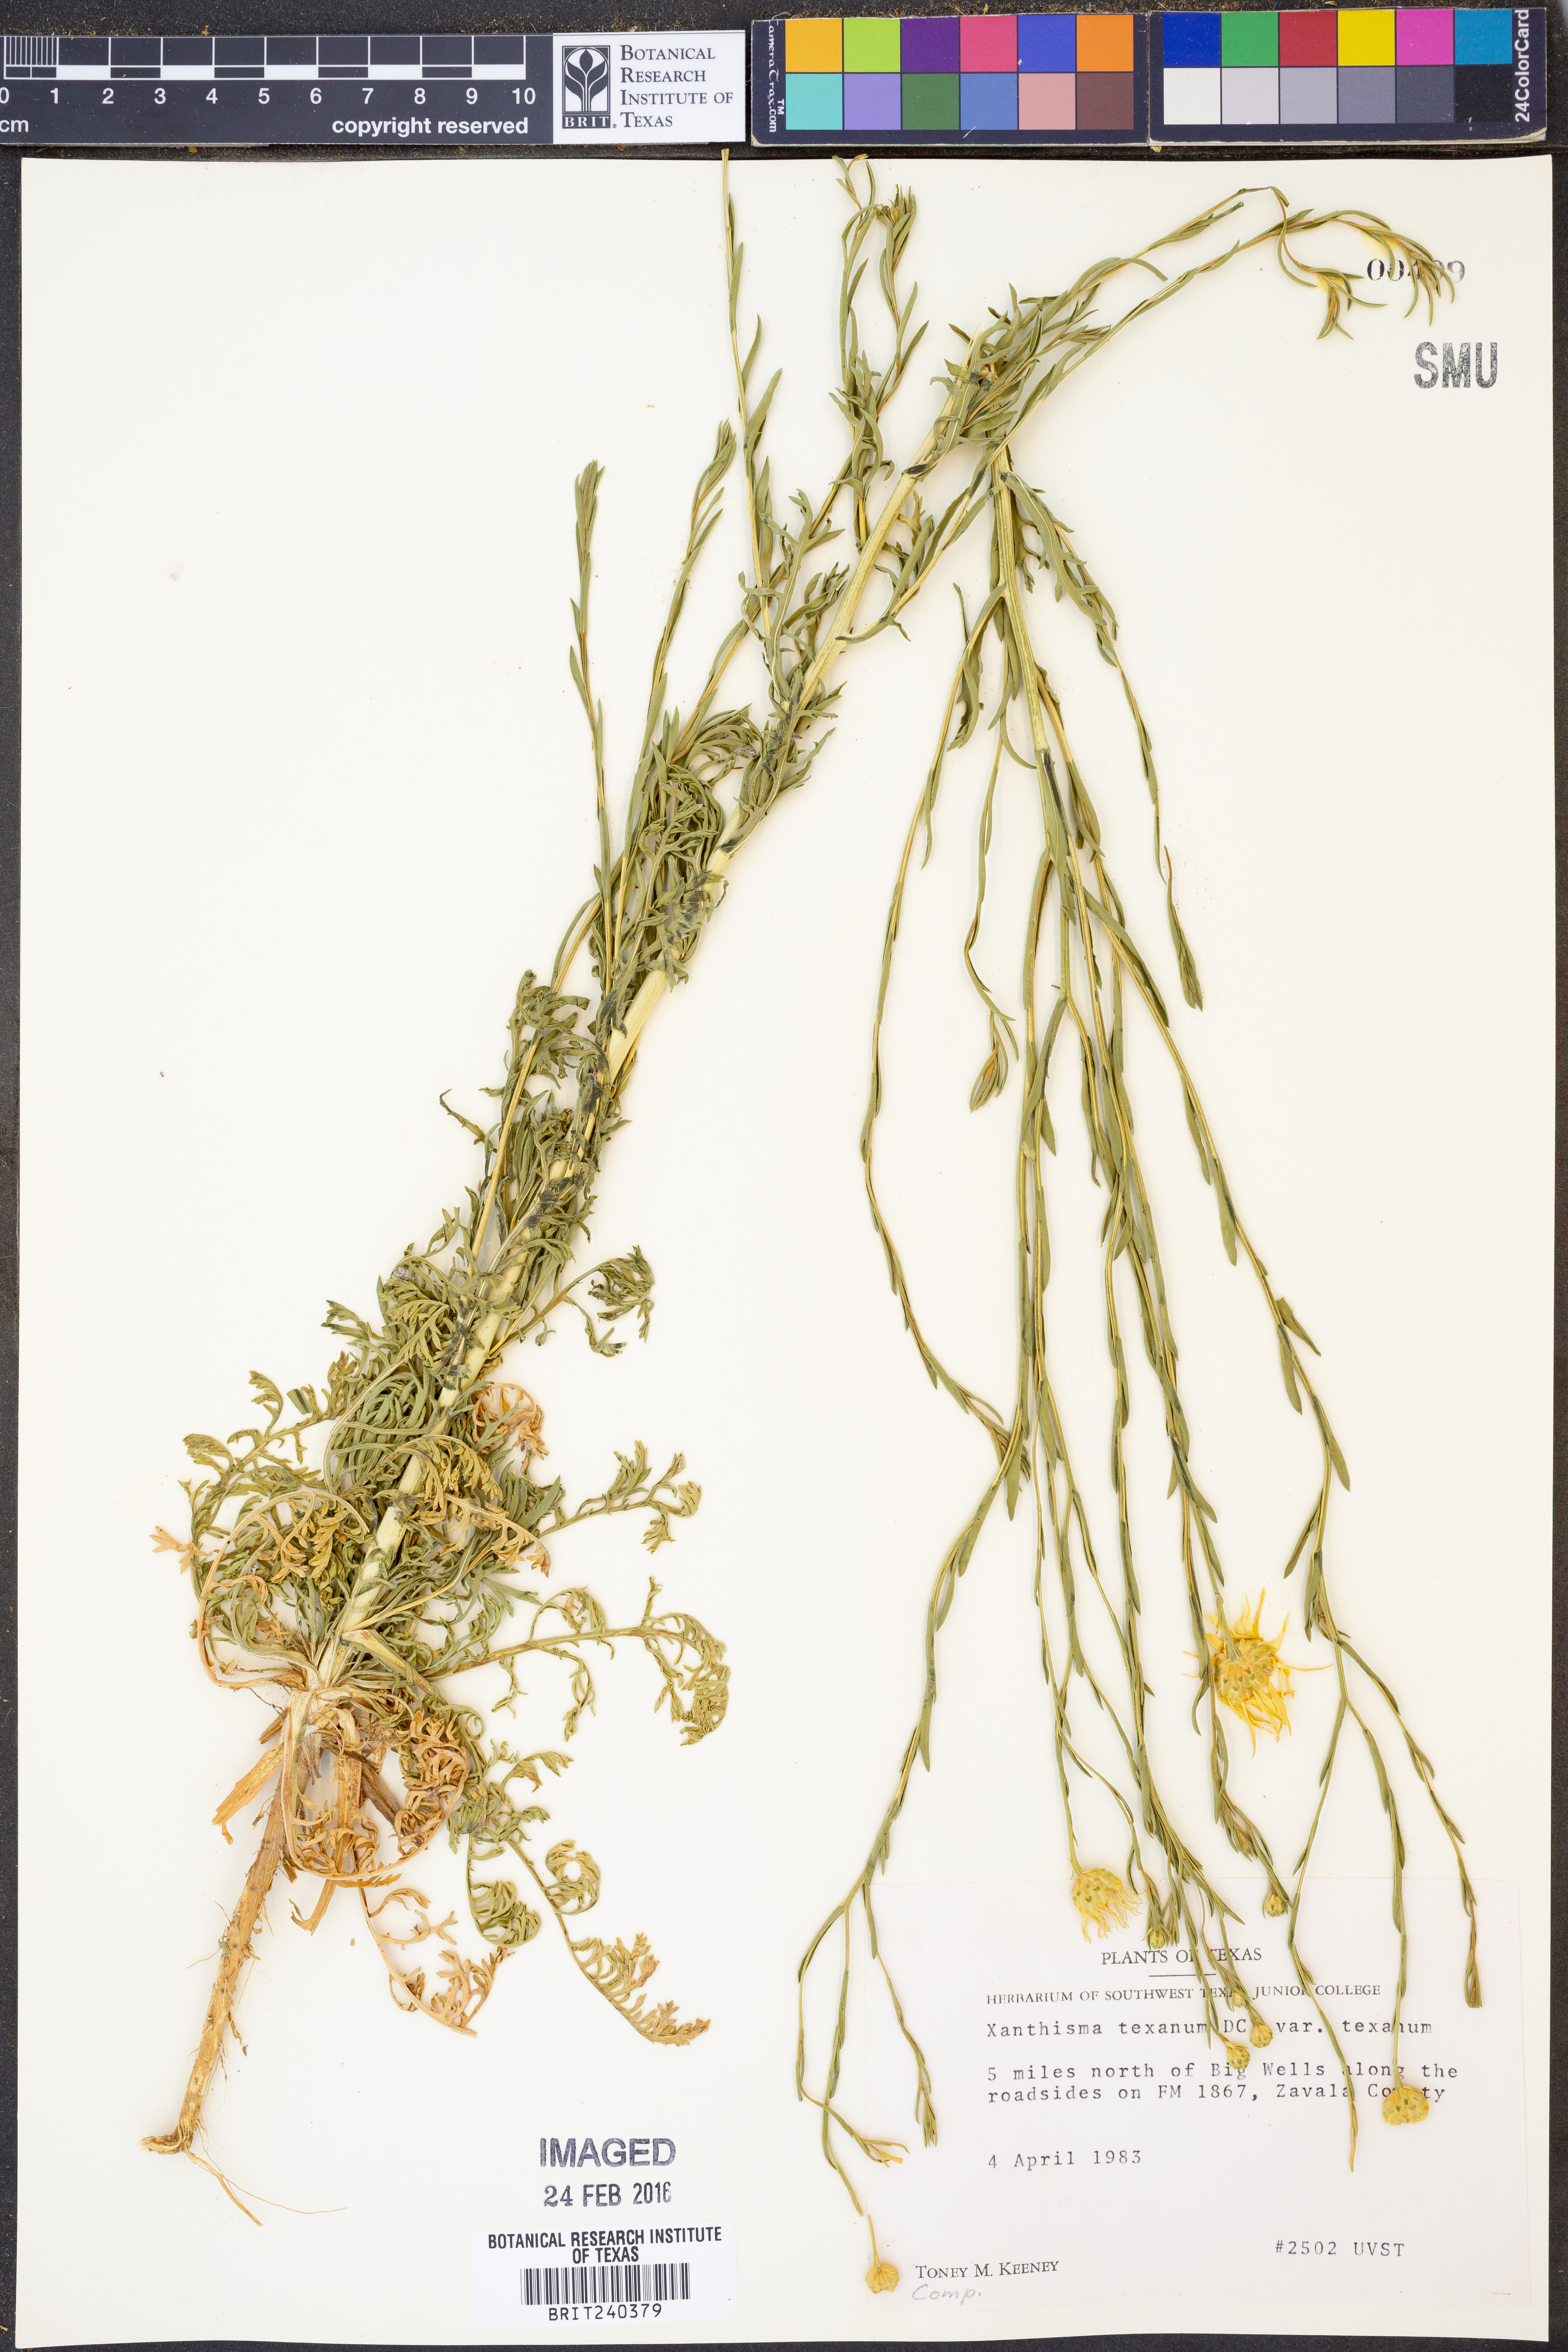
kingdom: Plantae
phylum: Tracheophyta
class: Magnoliopsida
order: Asterales
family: Asteraceae
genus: Xanthisma
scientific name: Xanthisma texanum
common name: Texas sleepy daisy
